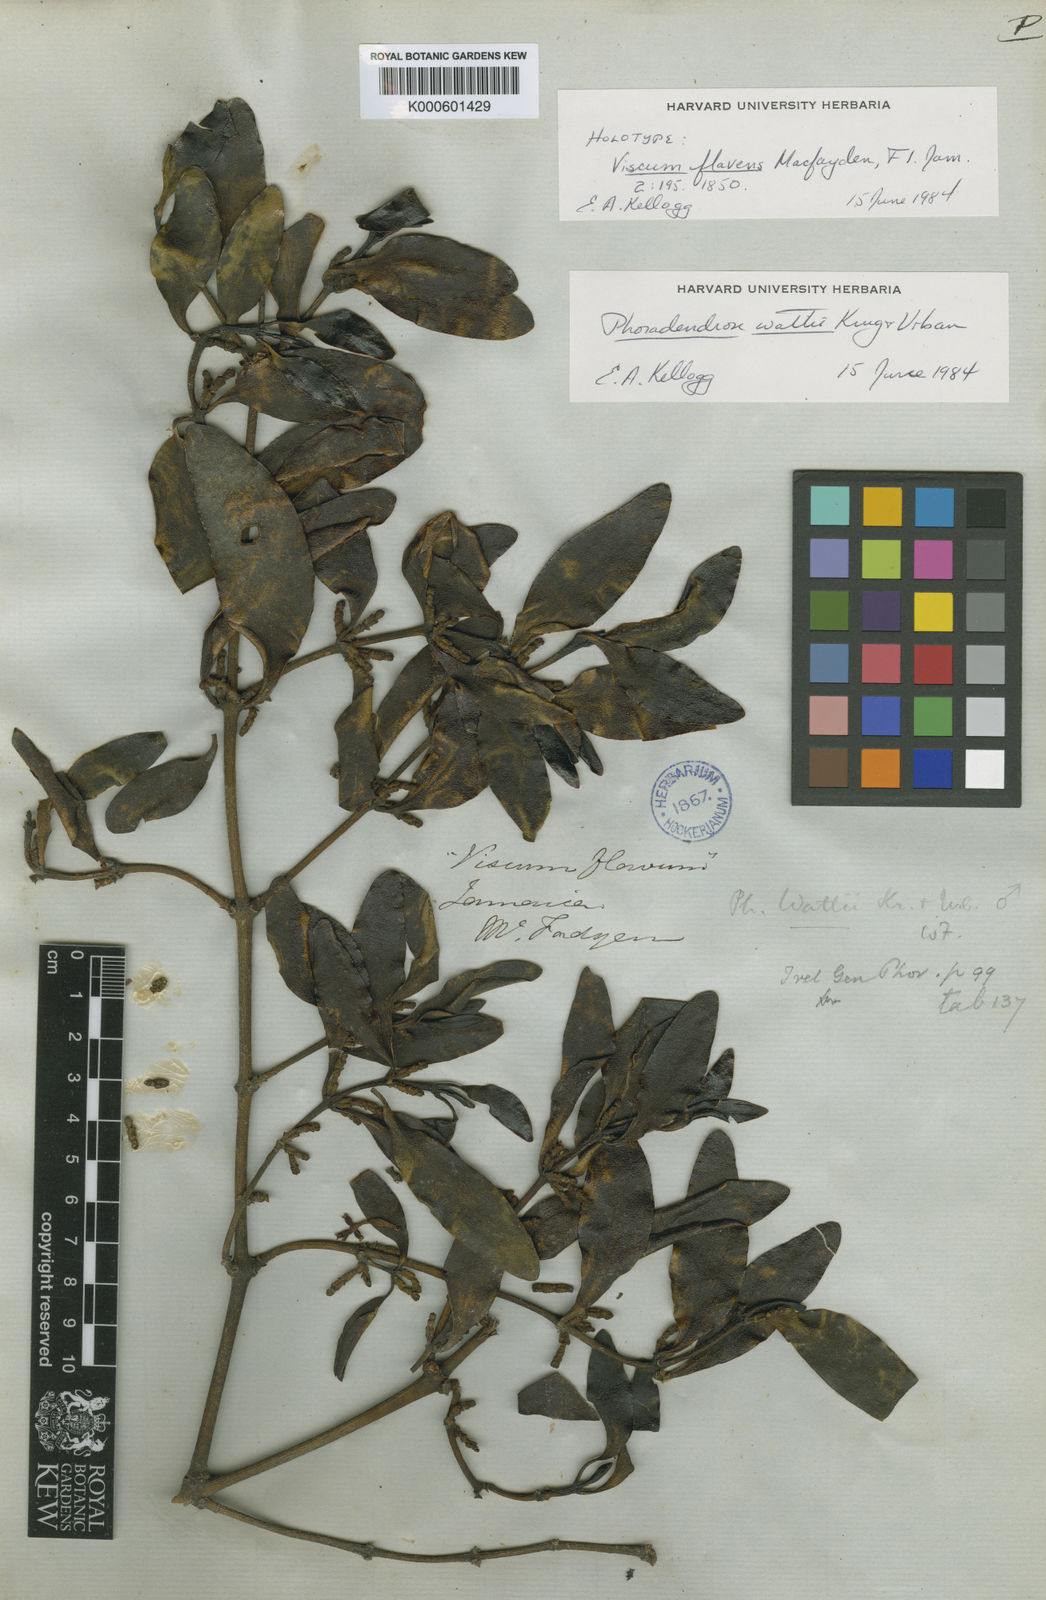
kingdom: Plantae
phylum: Tracheophyta
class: Magnoliopsida
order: Santalales
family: Viscaceae
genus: Phoradendron
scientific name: Phoradendron wattii
